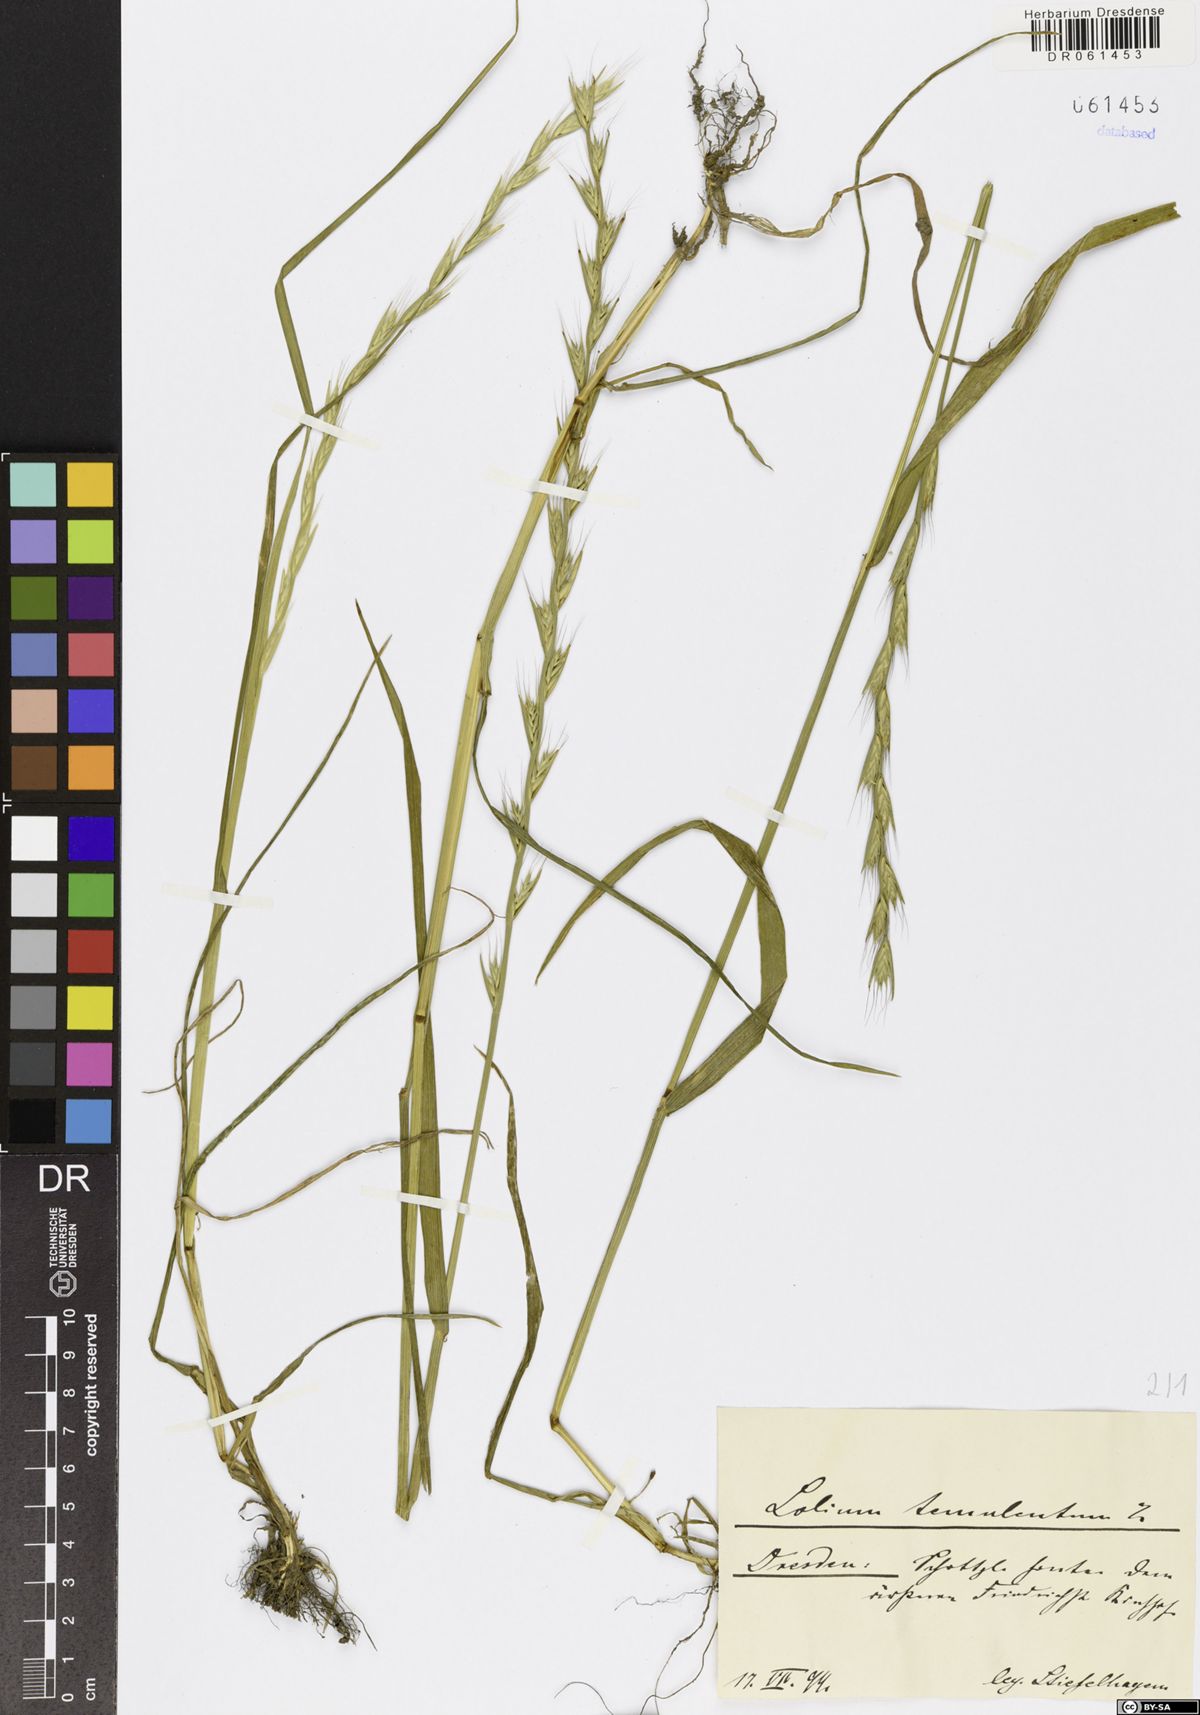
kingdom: Plantae
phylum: Tracheophyta
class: Liliopsida
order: Poales
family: Poaceae
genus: Lolium
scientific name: Lolium temulentum
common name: Darnel
